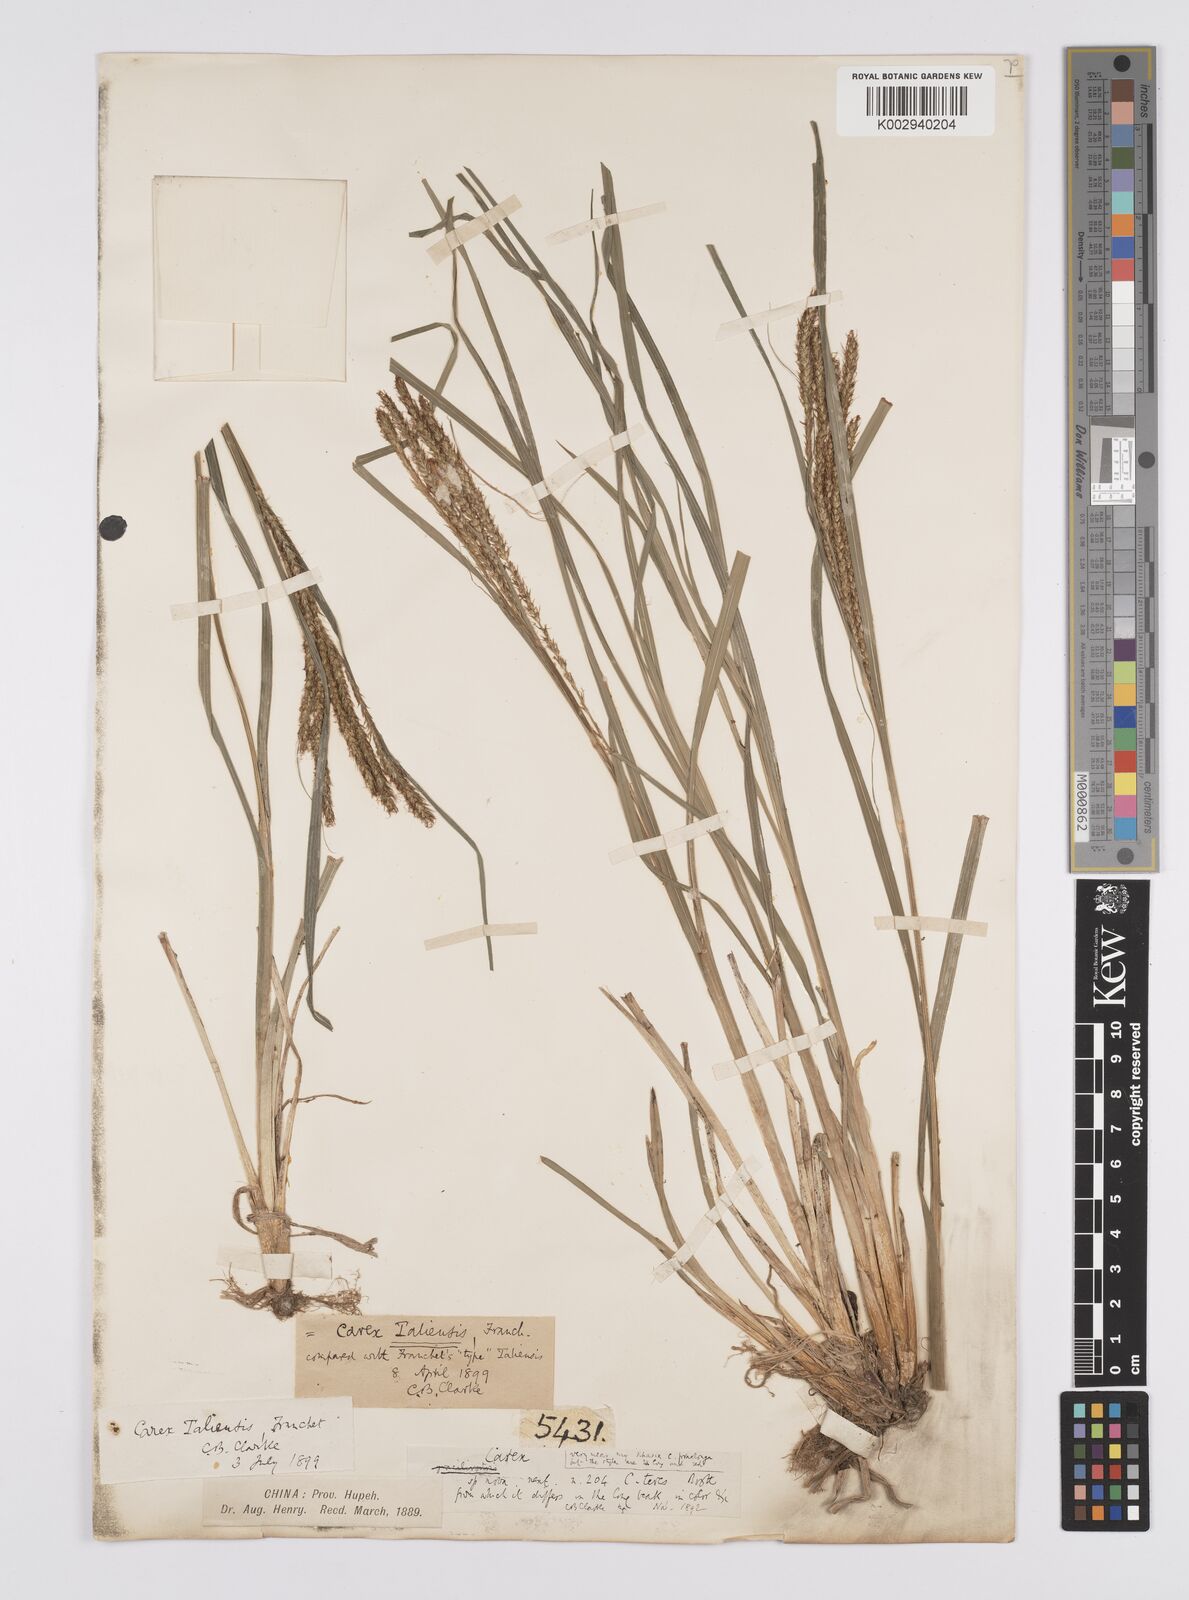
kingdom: Plantae
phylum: Tracheophyta
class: Liliopsida
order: Poales
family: Cyperaceae
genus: Carex
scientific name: Carex rubrobrunnea
